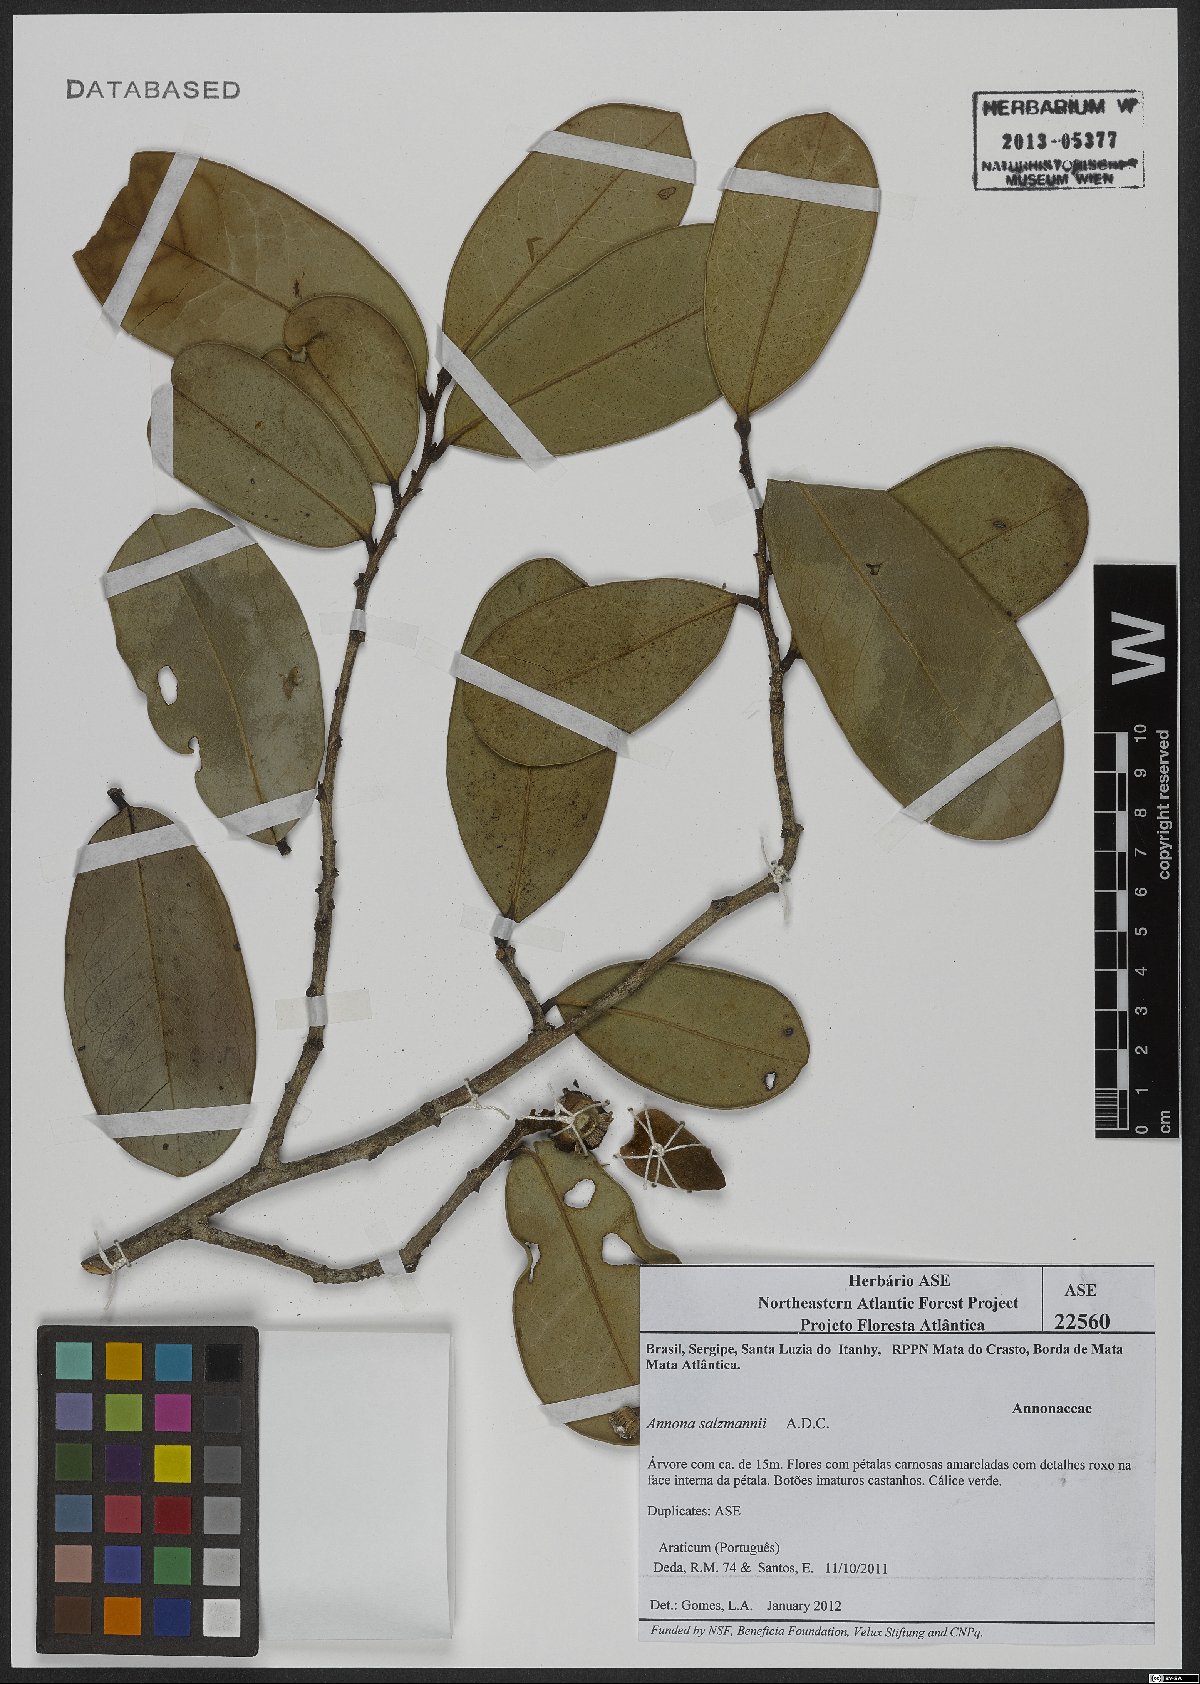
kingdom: Plantae
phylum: Tracheophyta
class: Magnoliopsida
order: Magnoliales
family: Annonaceae
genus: Annona
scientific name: Annona salzmannii
